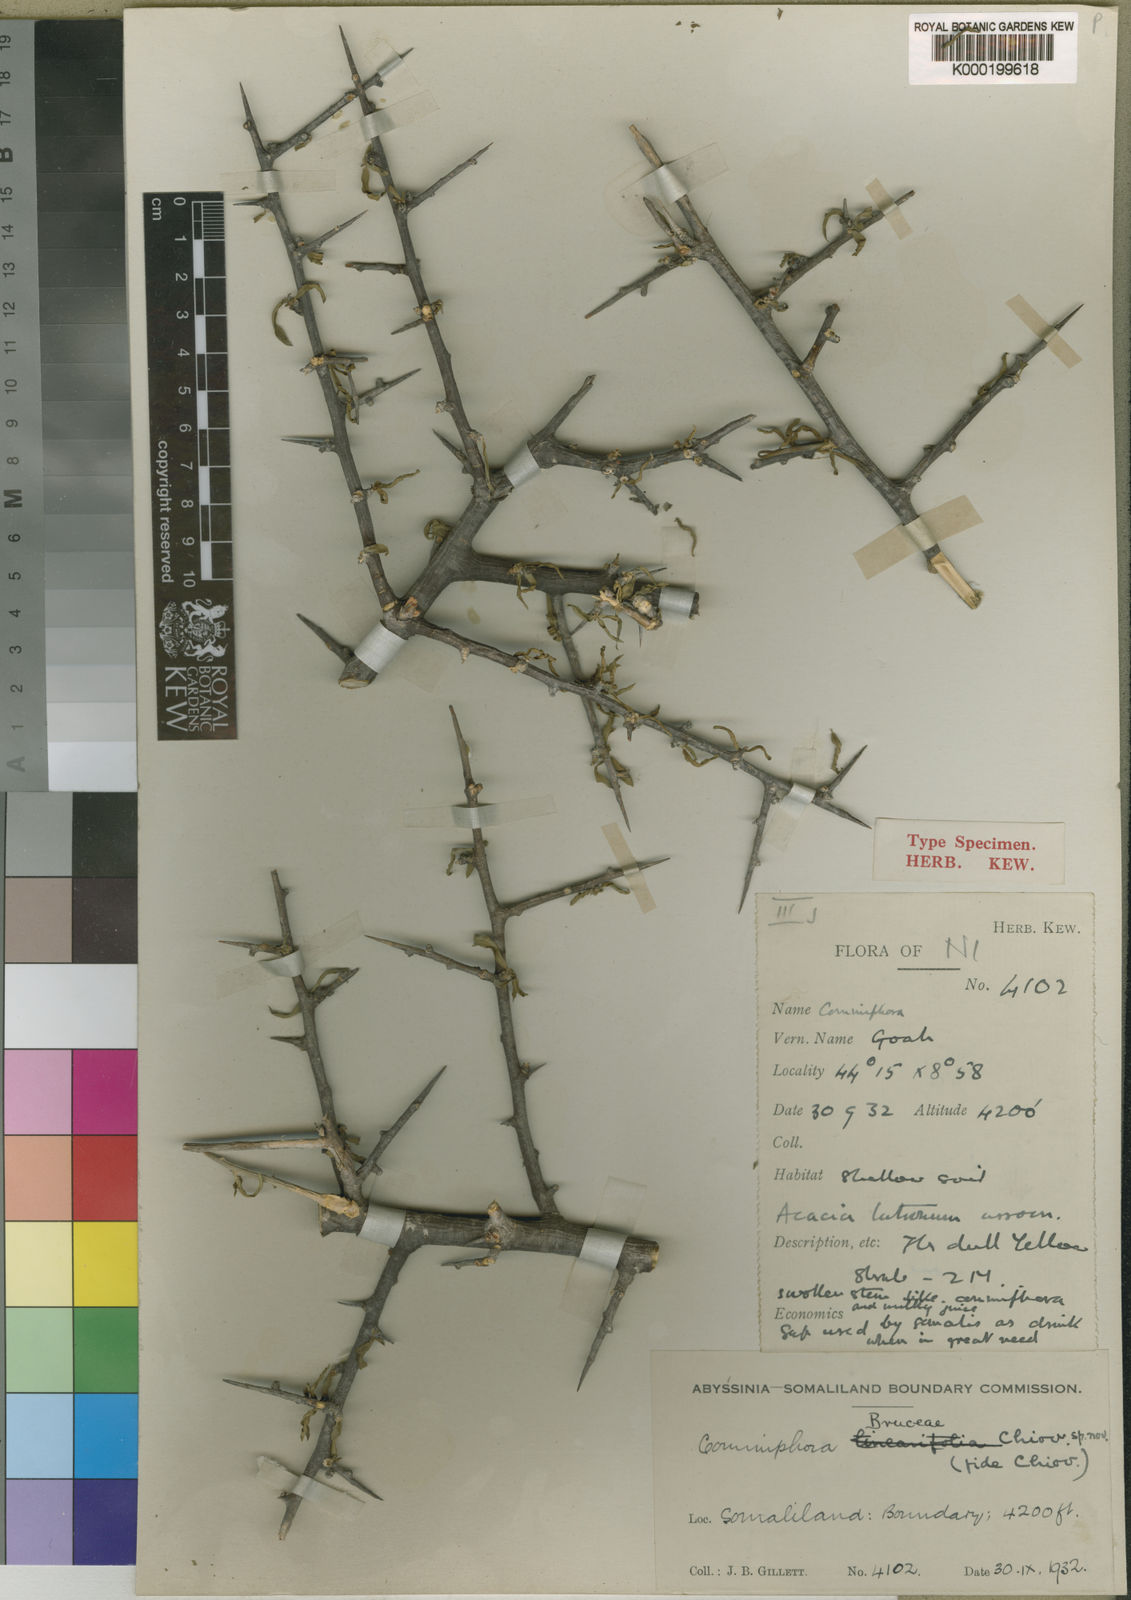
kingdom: Plantae
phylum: Tracheophyta
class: Magnoliopsida
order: Sapindales
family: Burseraceae
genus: Commiphora
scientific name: Commiphora kua
